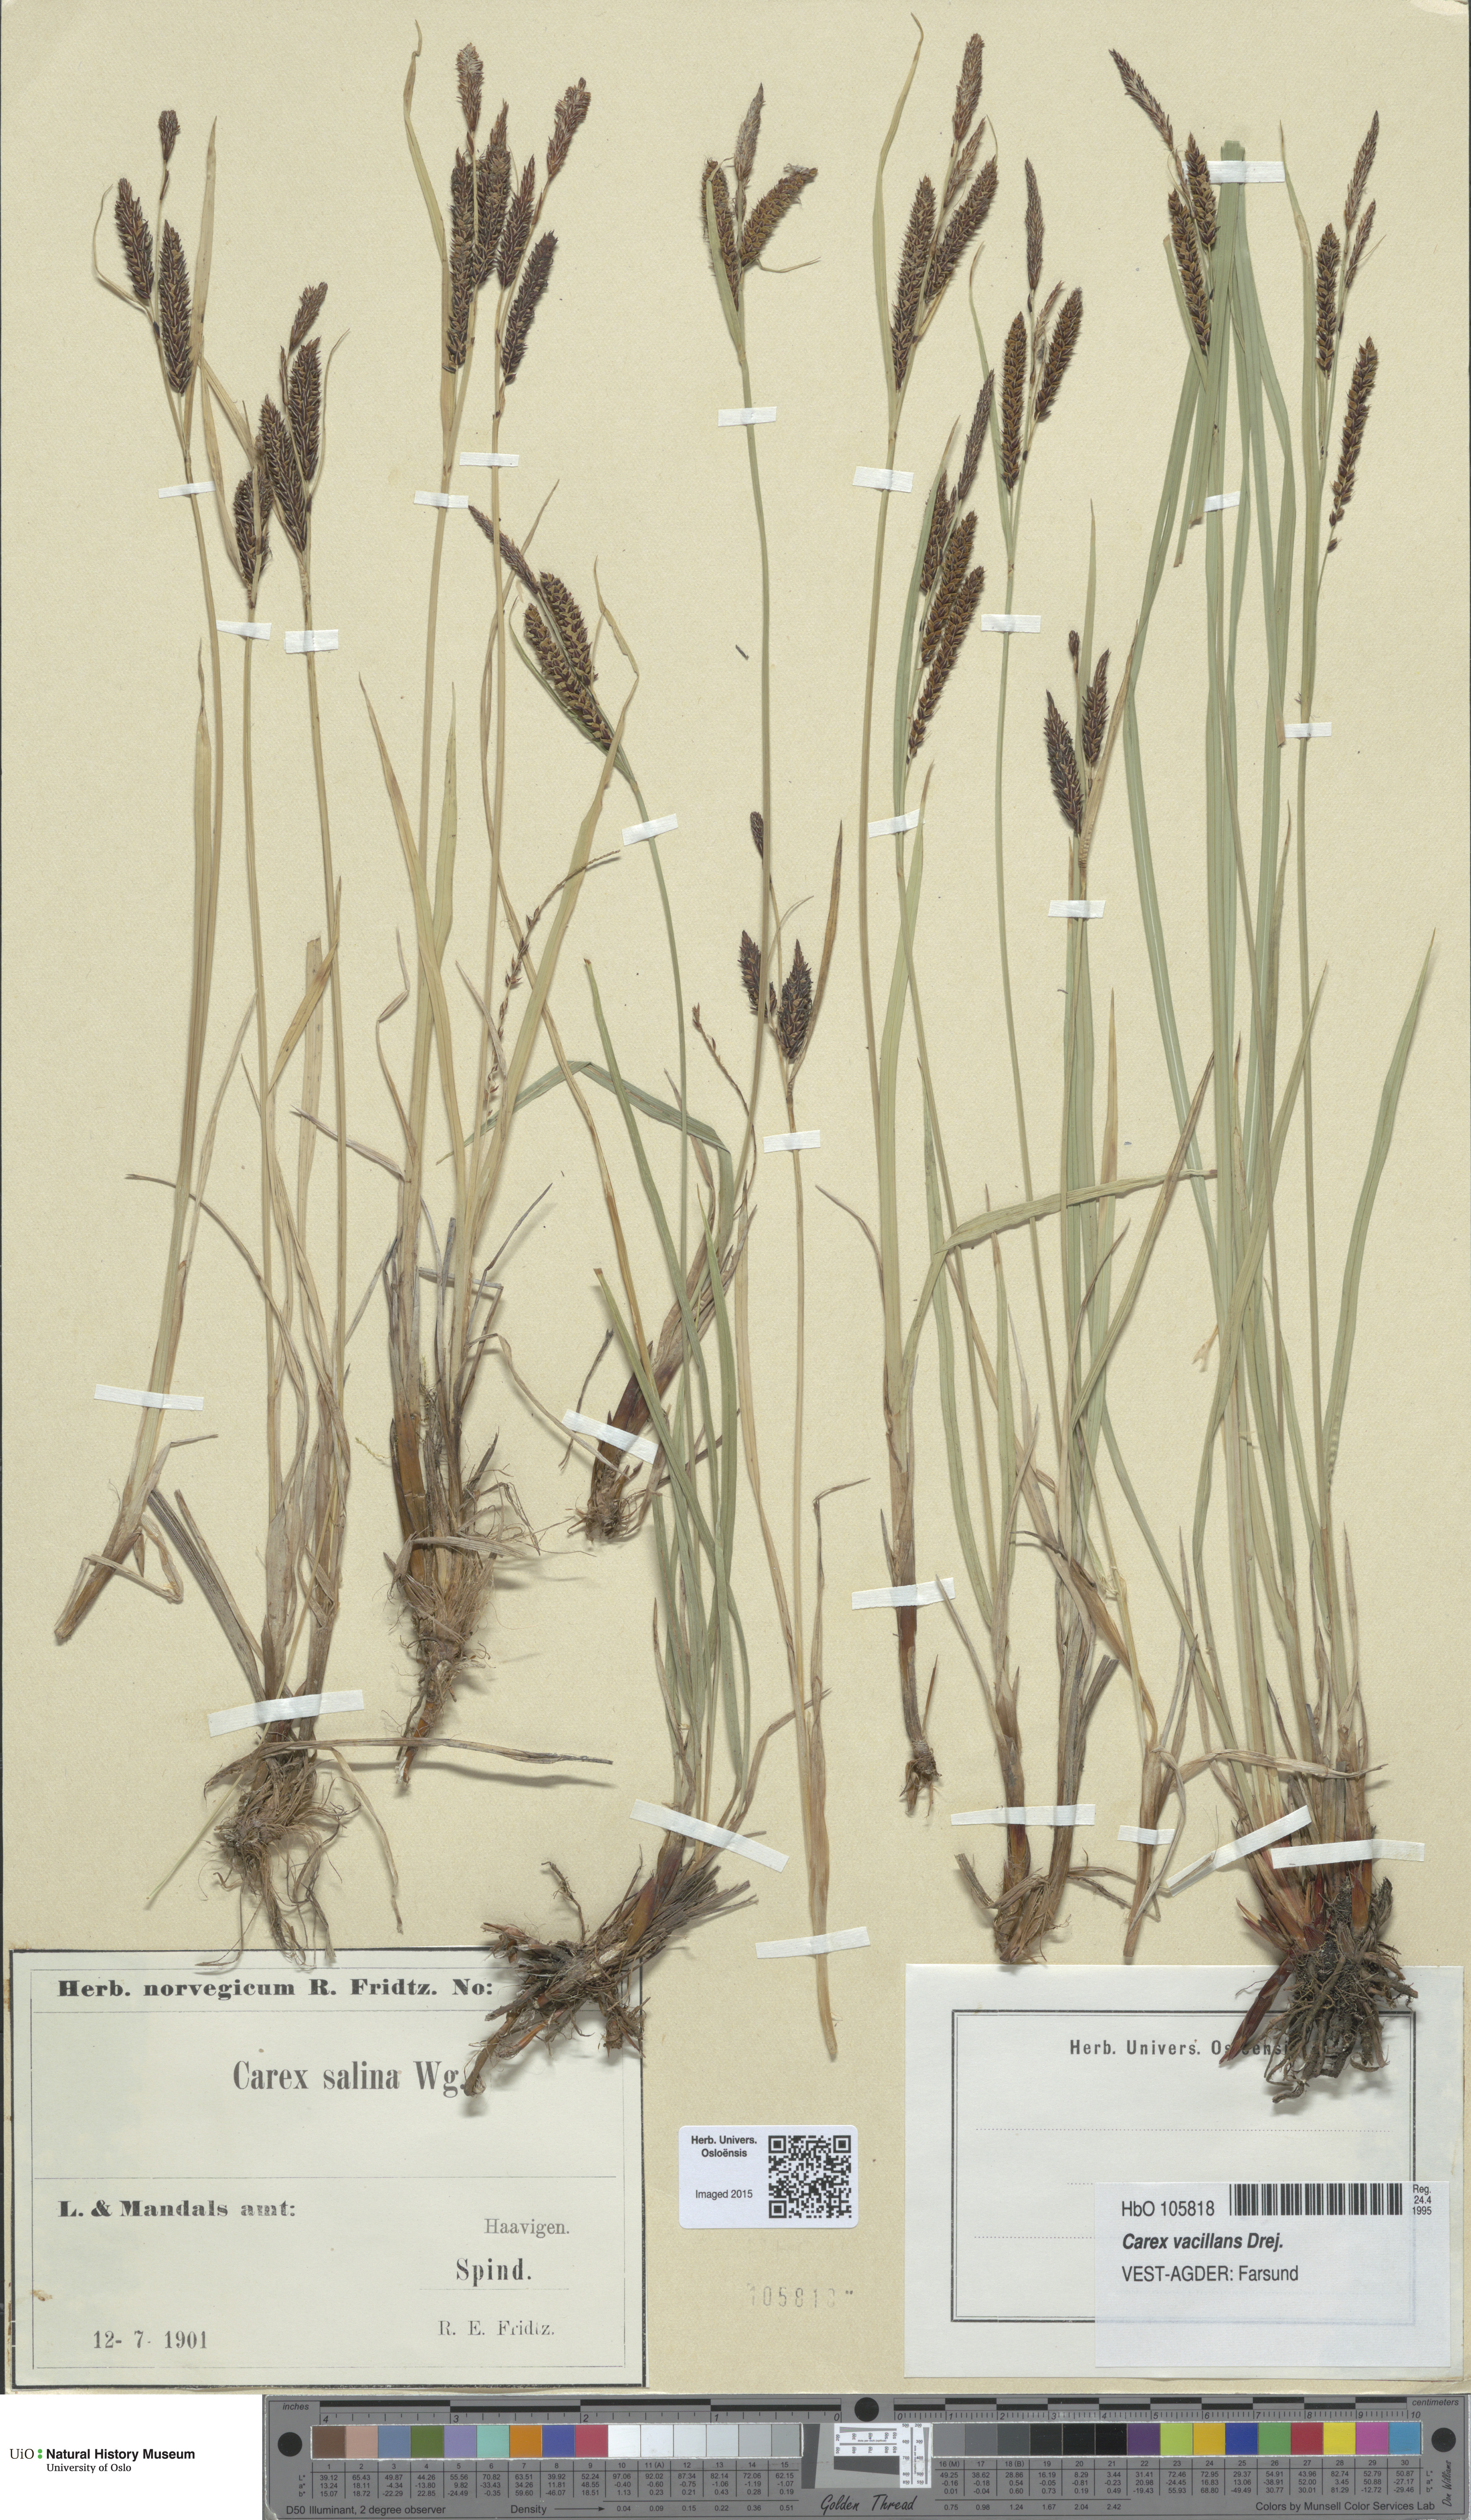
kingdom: Plantae
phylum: Tracheophyta
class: Liliopsida
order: Poales
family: Cyperaceae
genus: Carex
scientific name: Carex vacillans
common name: Sedge
